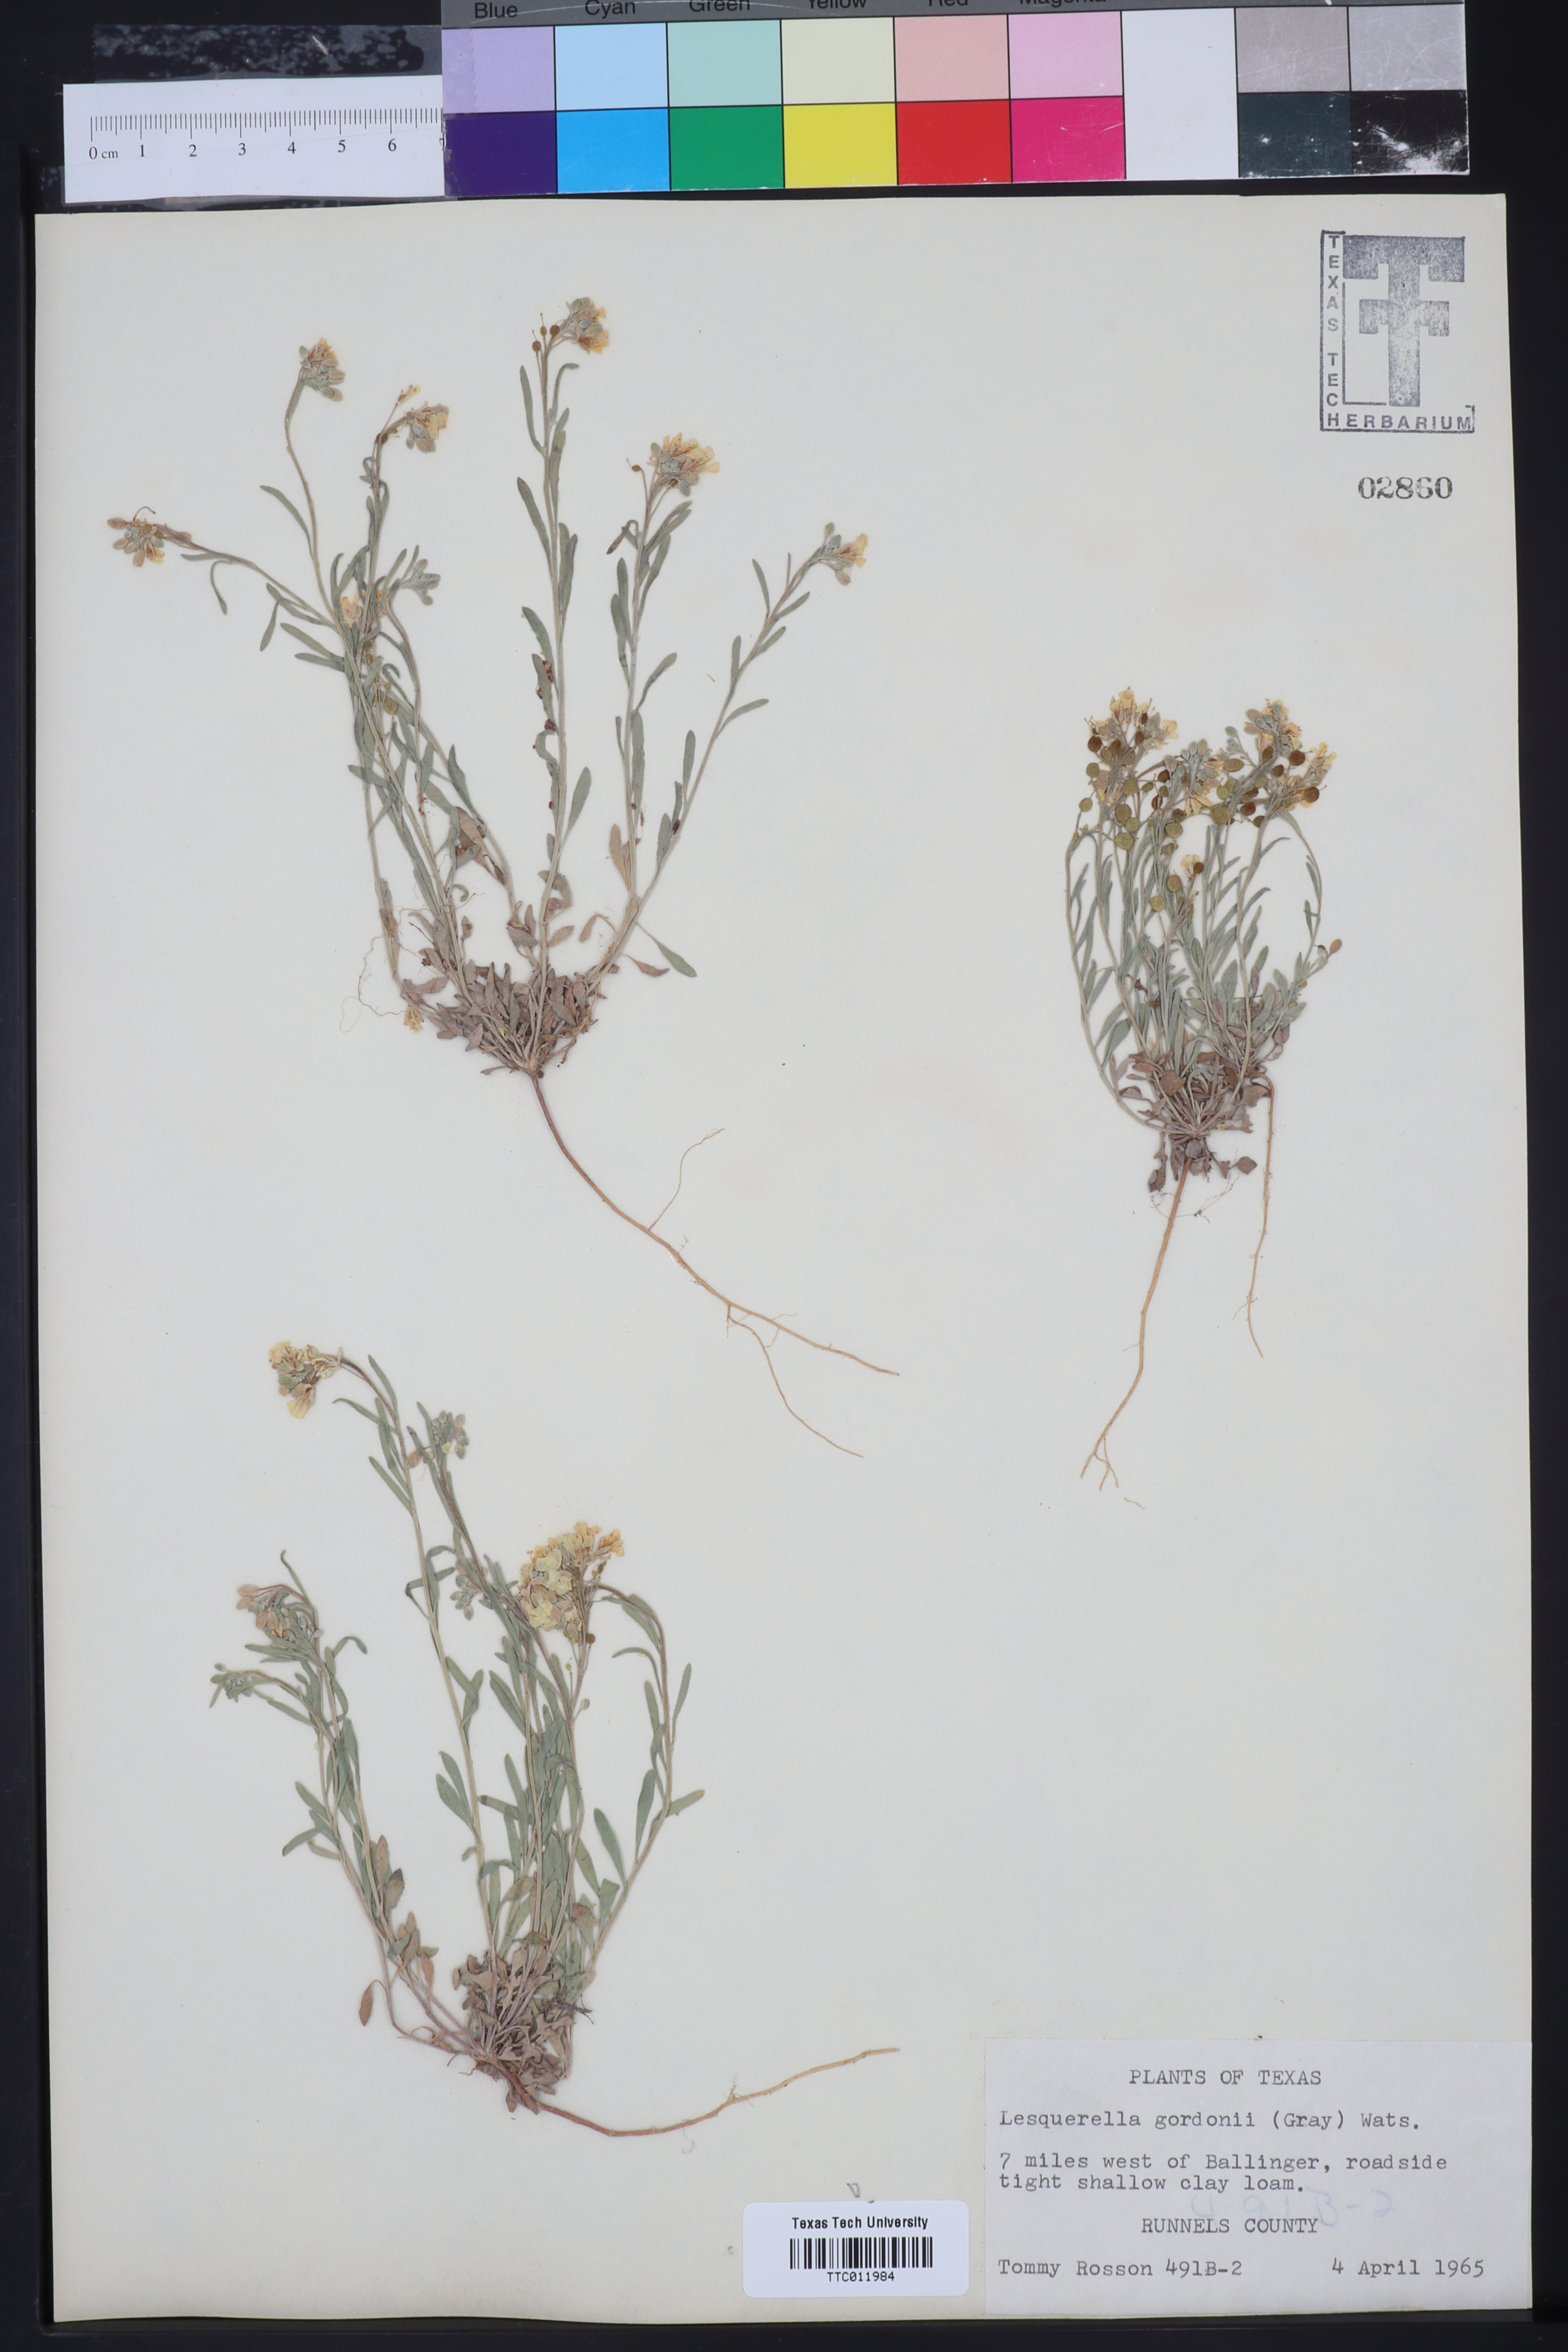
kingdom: Plantae
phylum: Tracheophyta
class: Magnoliopsida
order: Brassicales
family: Brassicaceae
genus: Physaria
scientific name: Physaria gordonii
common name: Gordon's bladderpod
